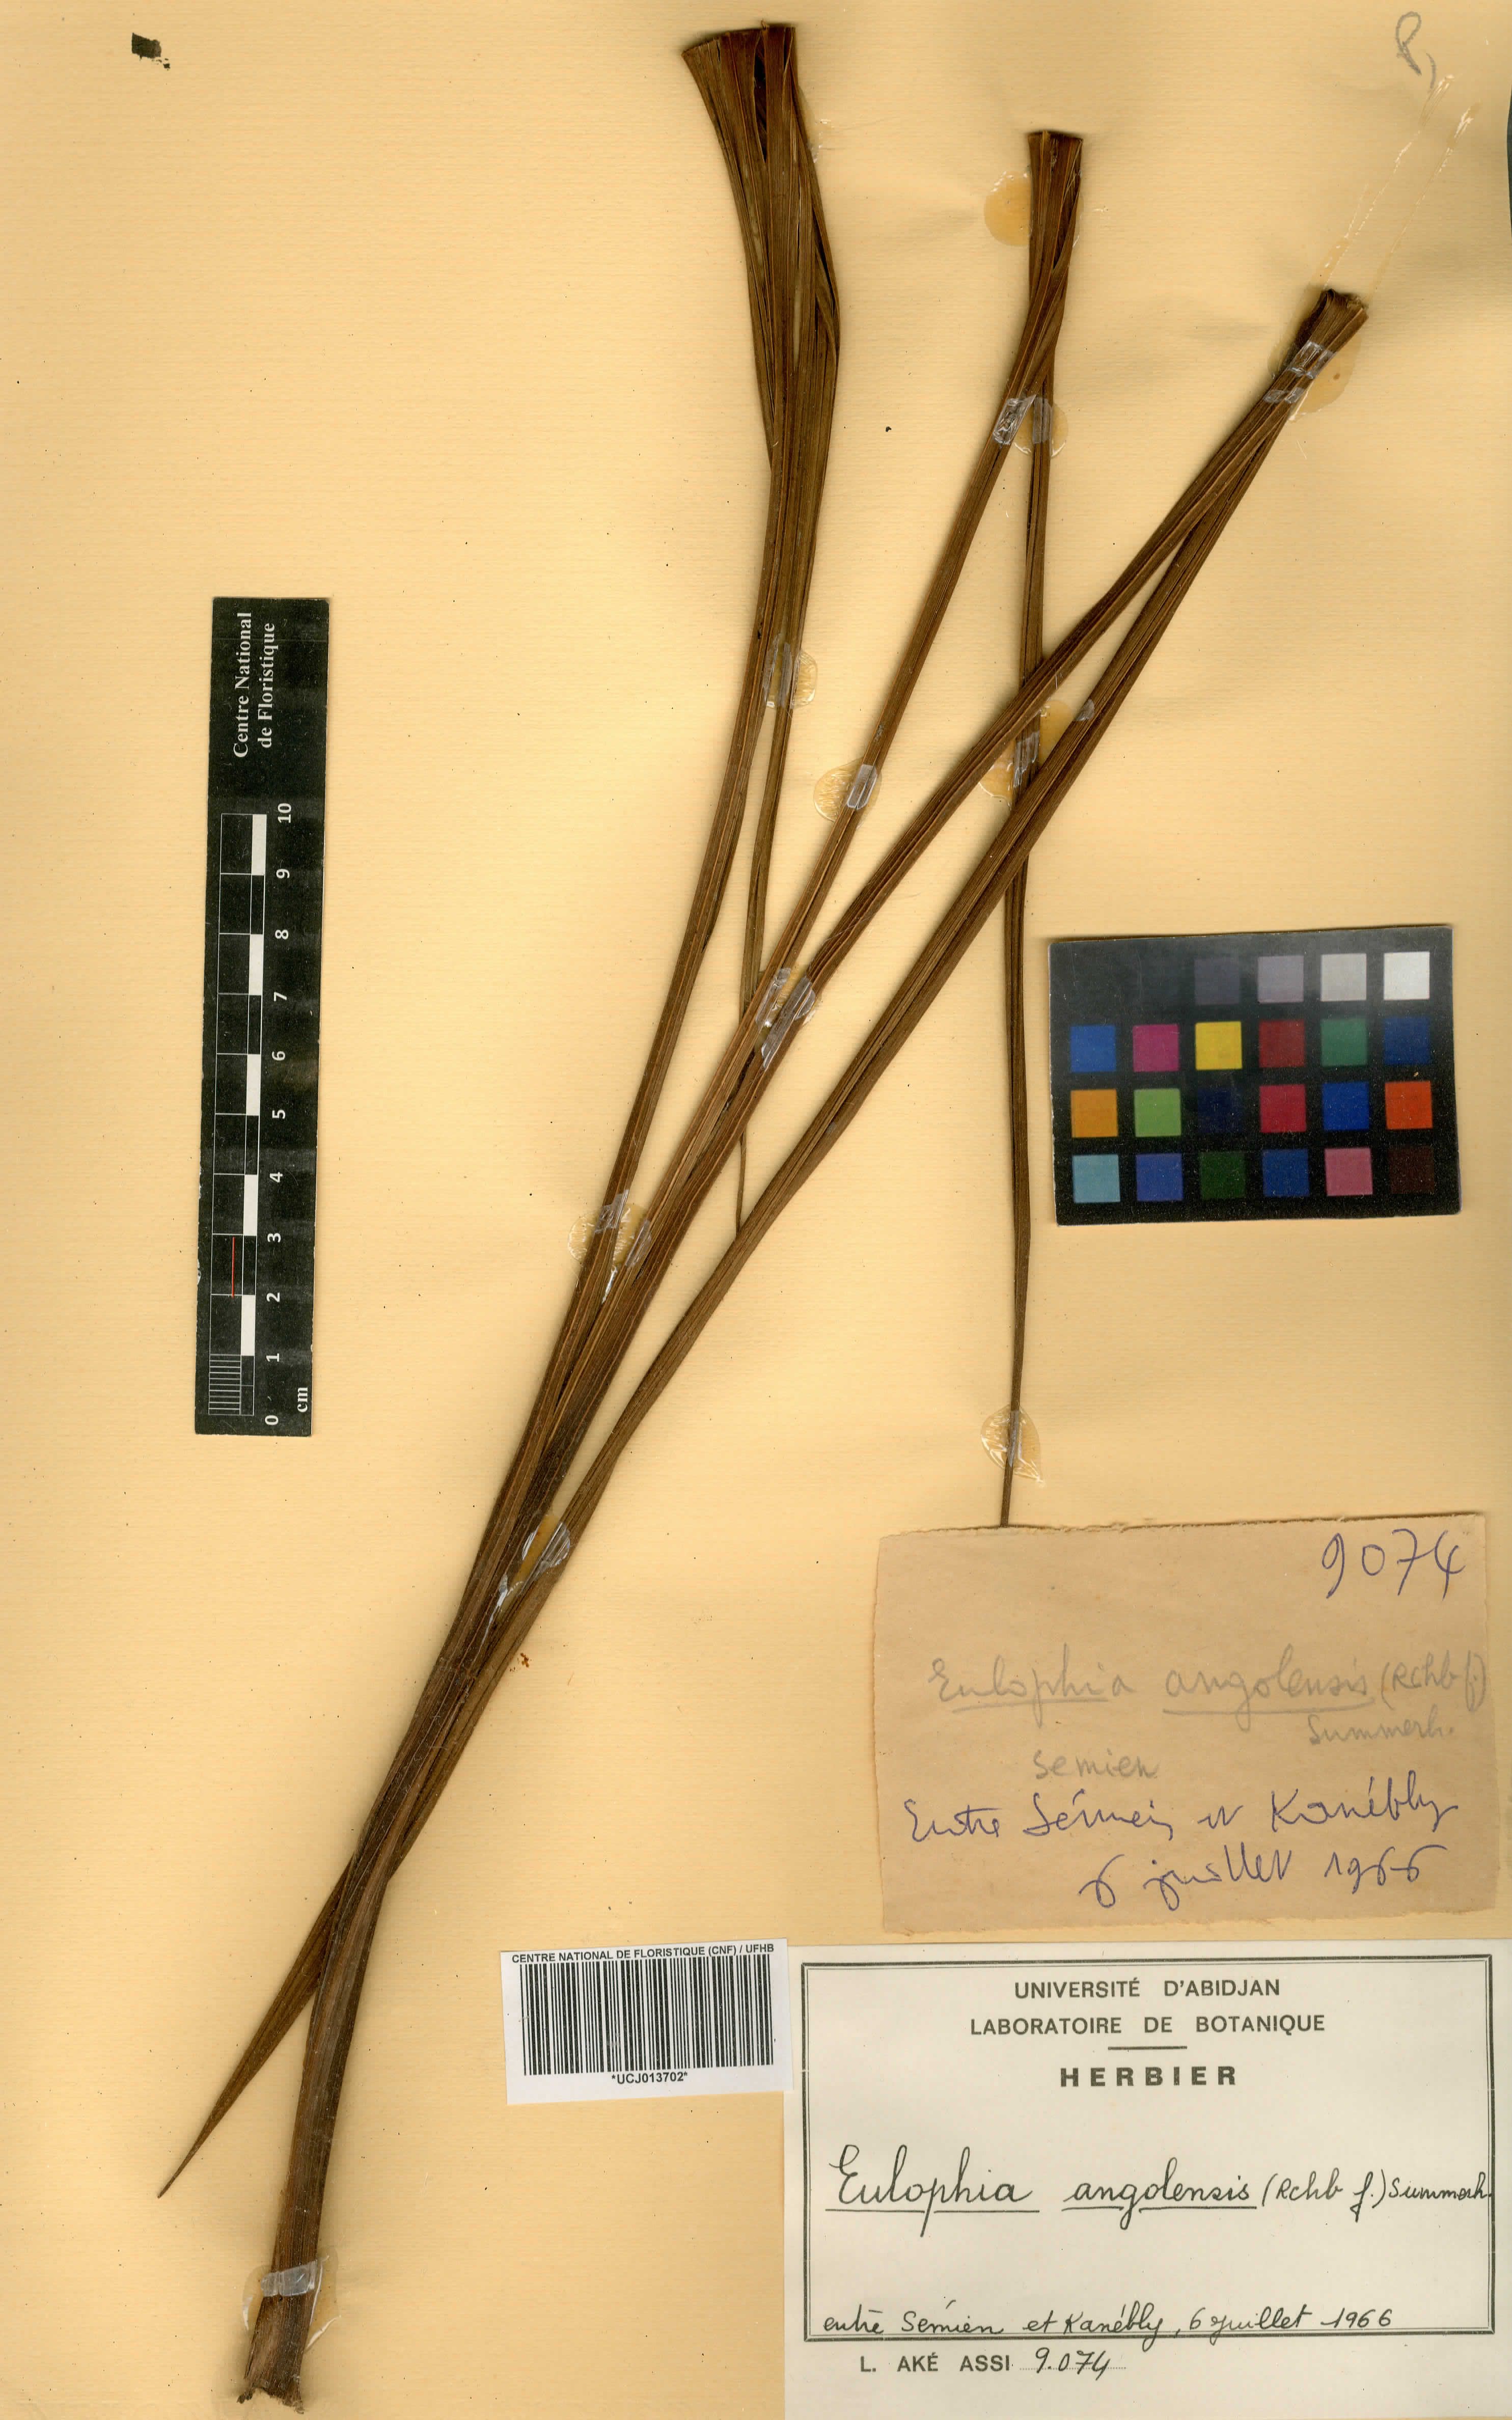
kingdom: Plantae
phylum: Tracheophyta
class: Liliopsida
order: Asparagales
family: Orchidaceae
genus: Eulophia
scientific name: Eulophia angolensis
